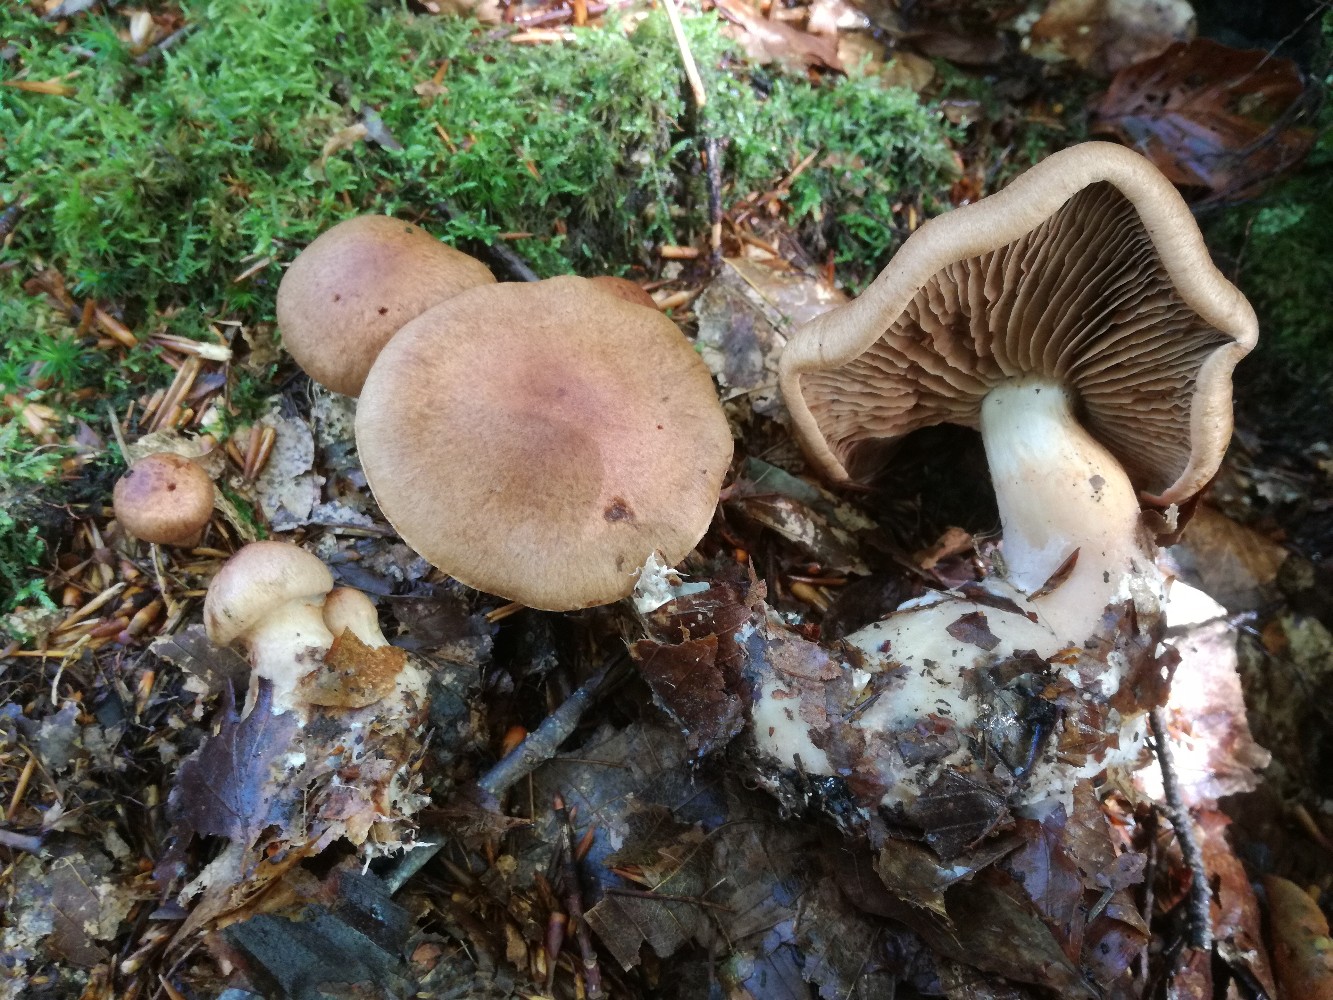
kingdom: Fungi
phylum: Basidiomycota
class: Agaricomycetes
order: Agaricales
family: Cortinariaceae
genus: Cortinarius
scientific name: Cortinarius roseoarmillatus
